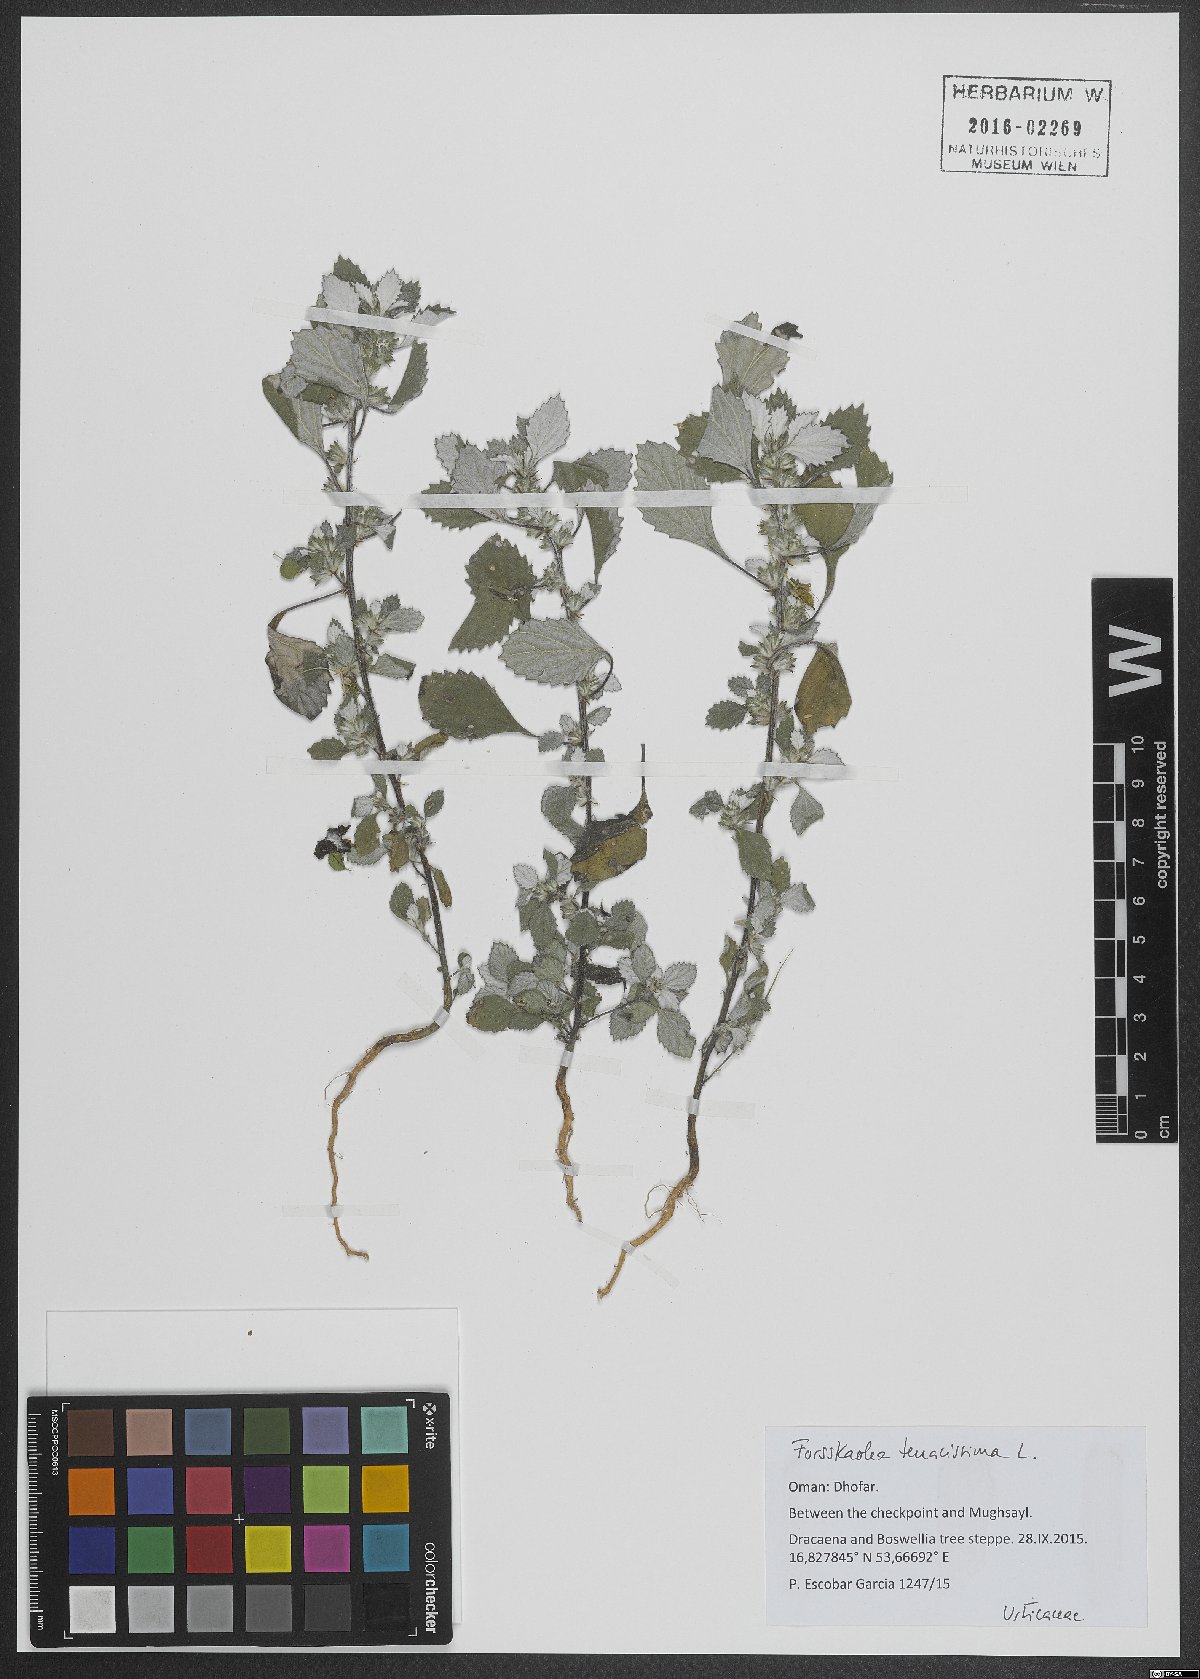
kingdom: Plantae
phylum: Tracheophyta
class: Magnoliopsida
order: Rosales
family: Urticaceae
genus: Forsskaolea
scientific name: Forsskaolea tenacissima
